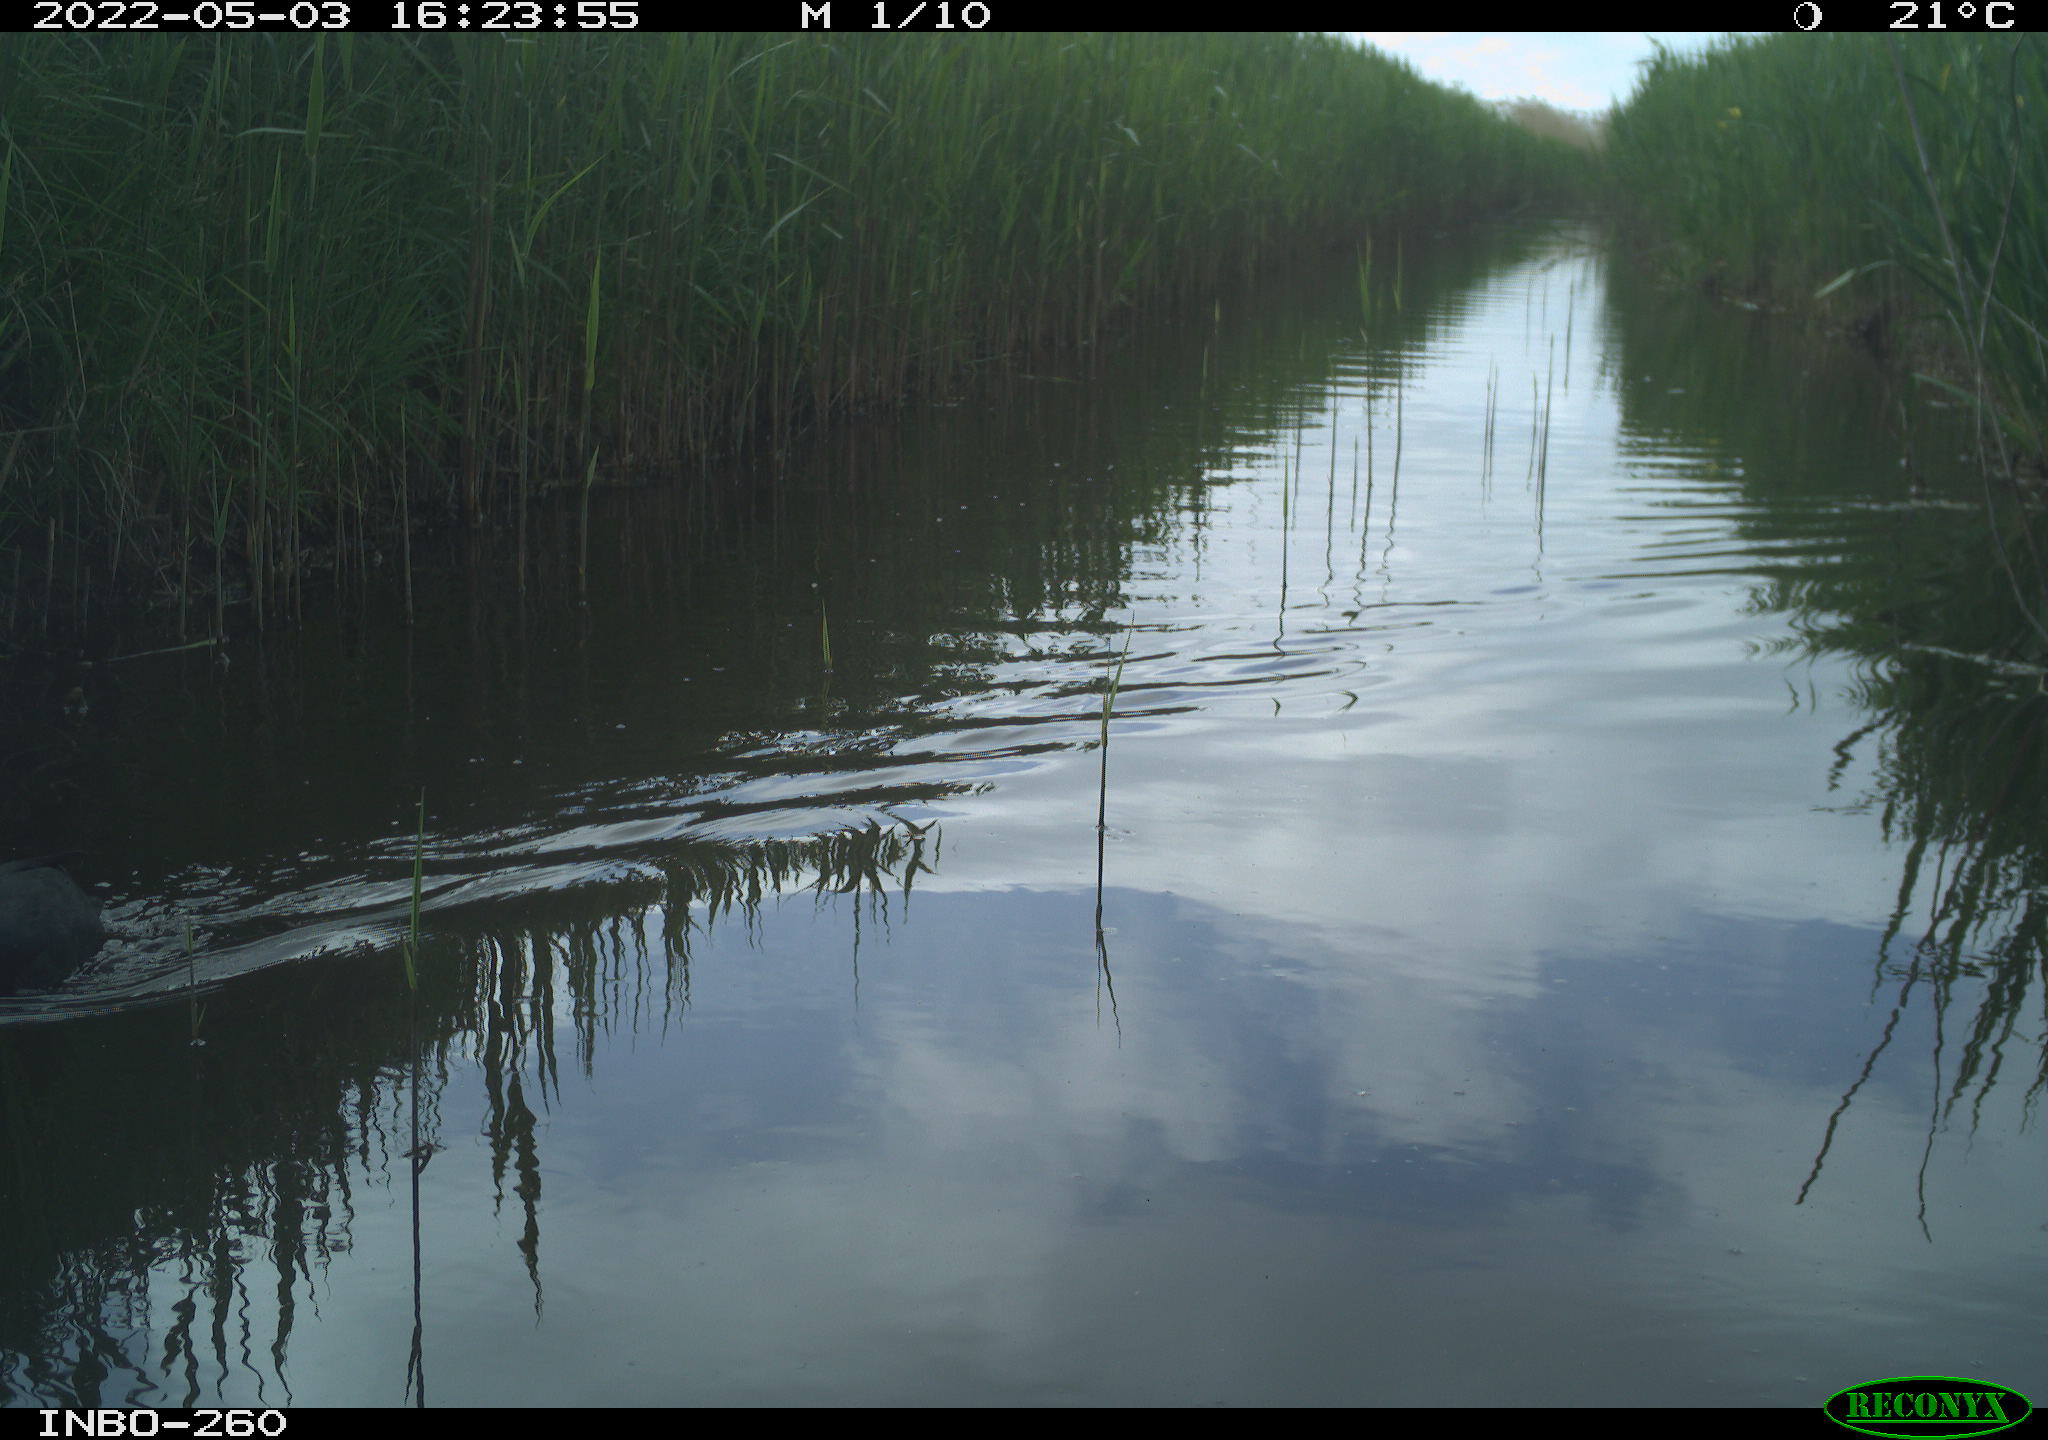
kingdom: Animalia
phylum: Chordata
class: Aves
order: Gruiformes
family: Rallidae
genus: Fulica
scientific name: Fulica atra
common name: Eurasian coot
